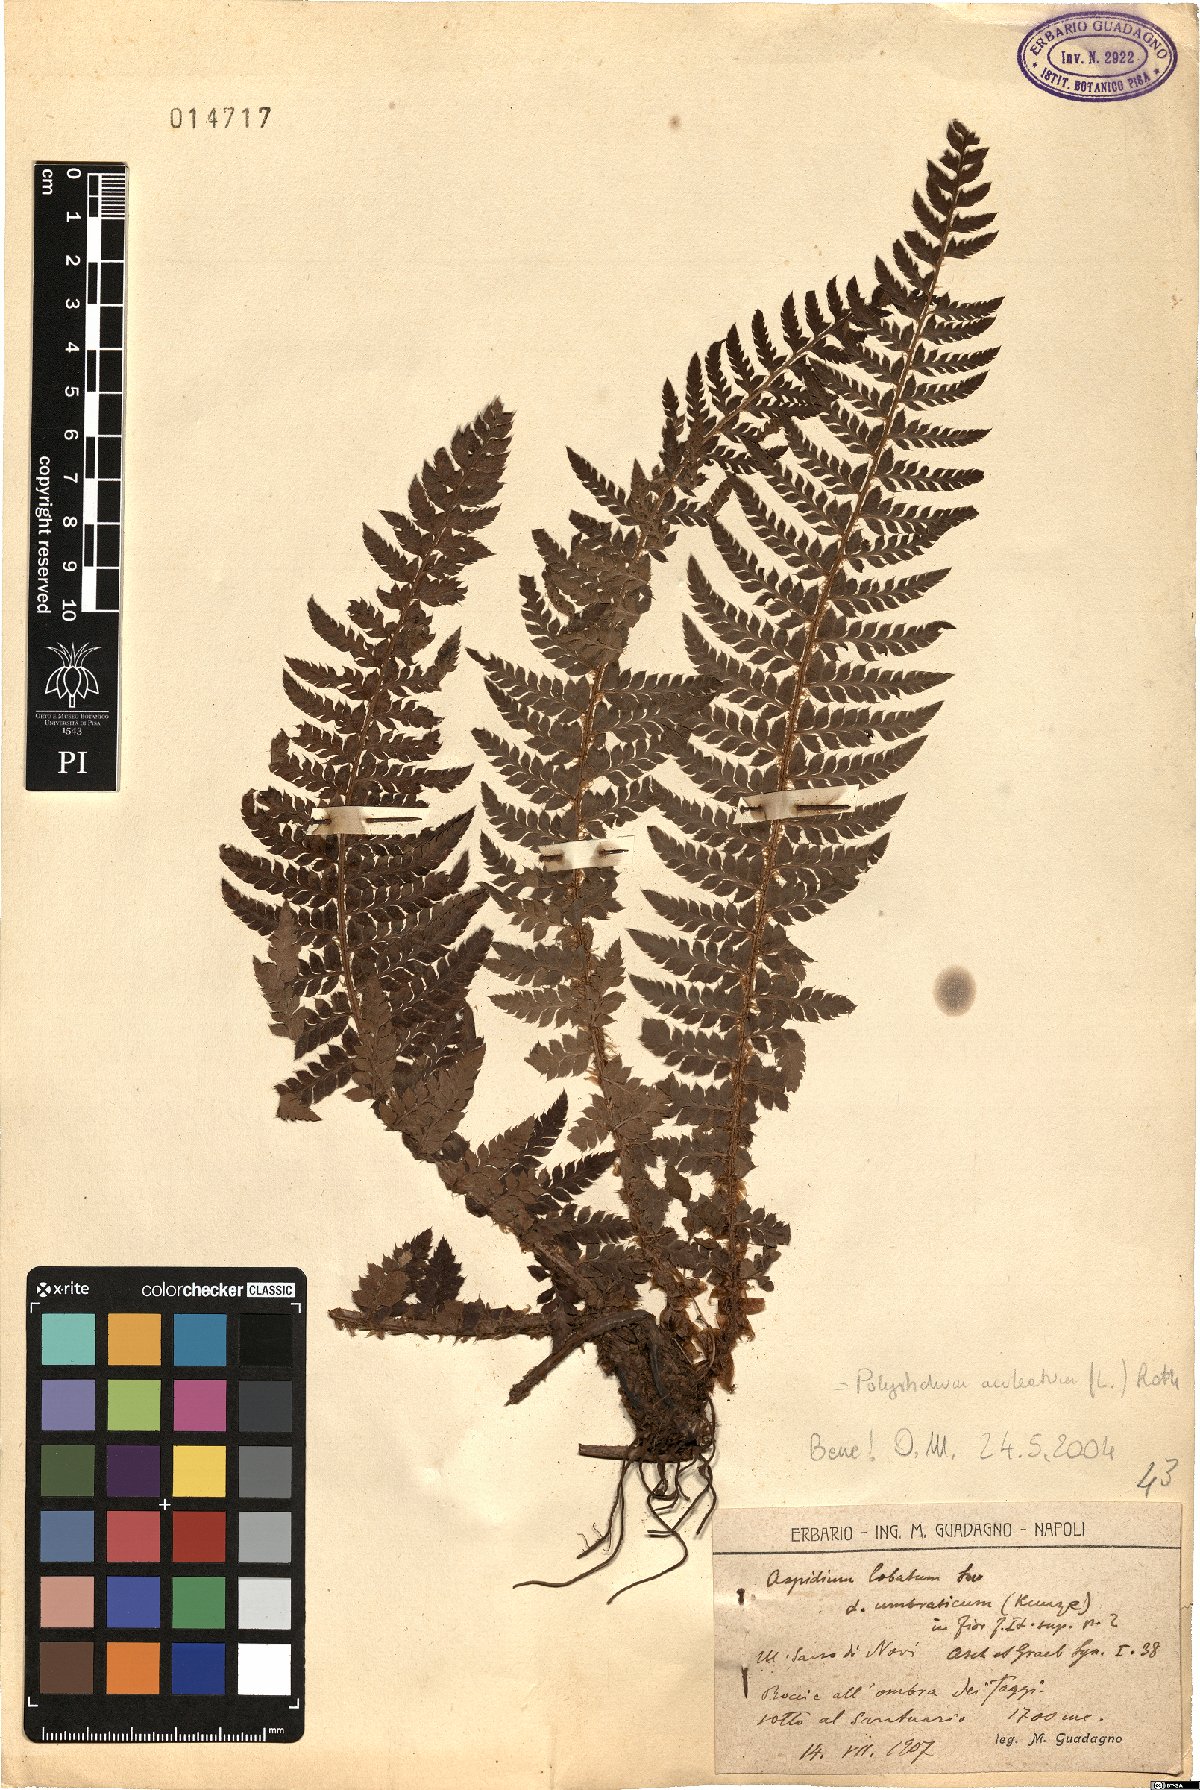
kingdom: Plantae
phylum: Tracheophyta
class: Polypodiopsida
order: Polypodiales
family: Dryopteridaceae
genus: Polystichum
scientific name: Polystichum aculeatum
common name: Hard shield-fern
